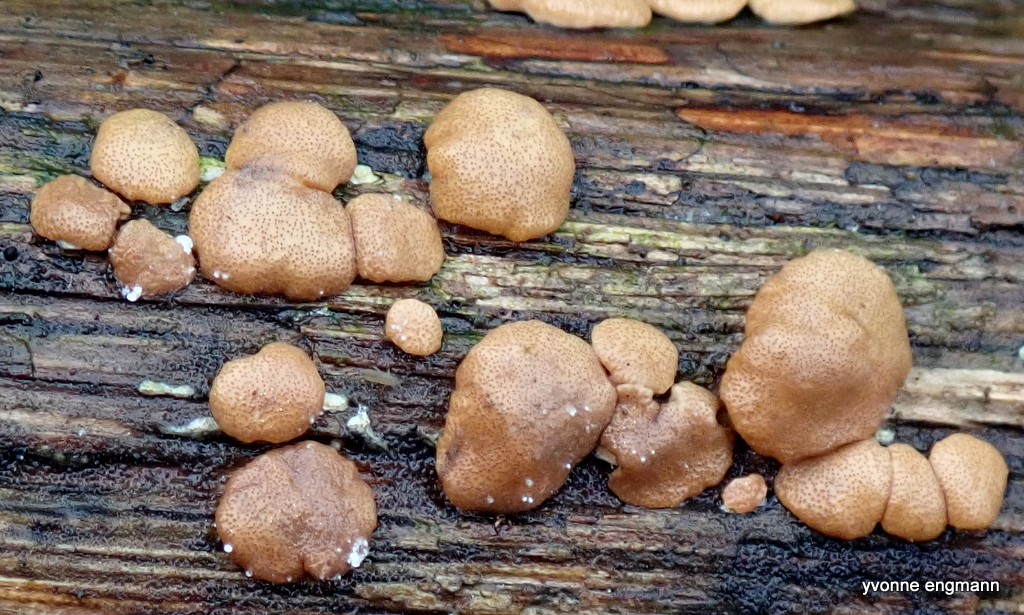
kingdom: Fungi
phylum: Ascomycota
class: Sordariomycetes
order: Hypocreales
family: Hypocreaceae
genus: Trichoderma
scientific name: Trichoderma europaeum
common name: rosabrun kødkerne
